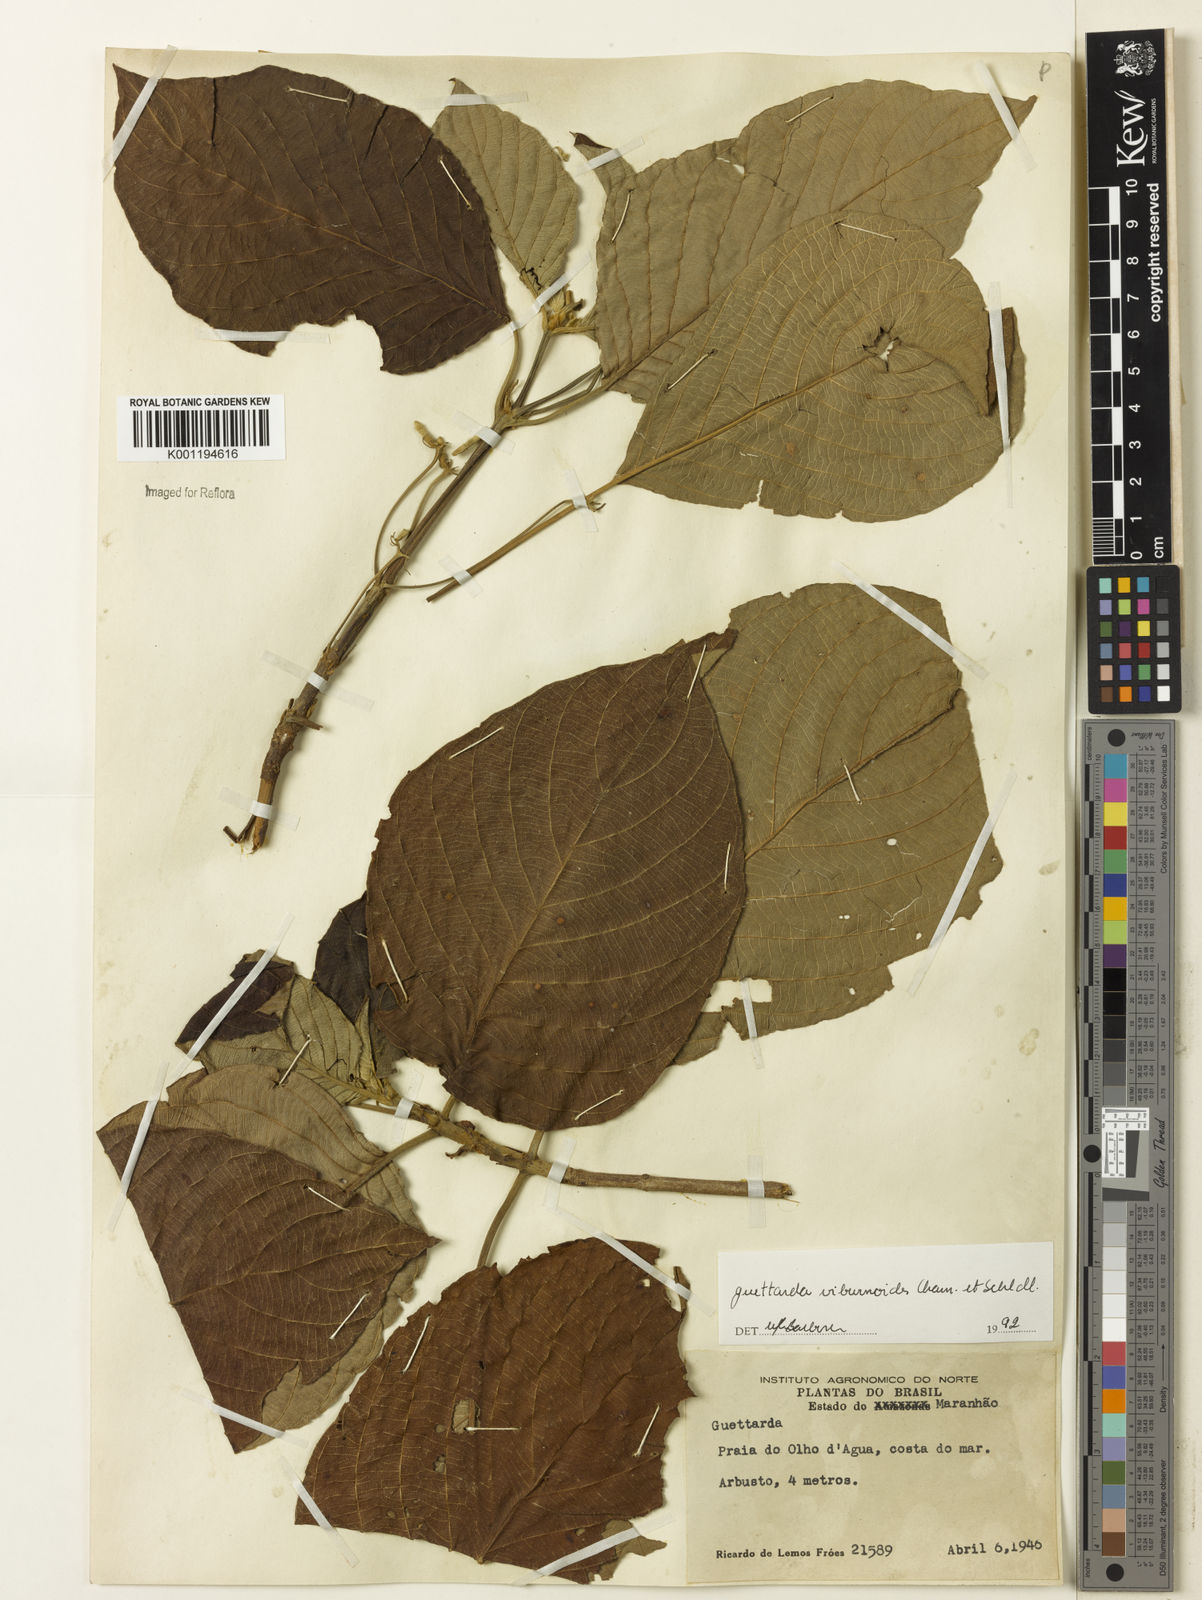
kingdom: Plantae
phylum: Tracheophyta
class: Magnoliopsida
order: Gentianales
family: Rubiaceae
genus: Guettarda
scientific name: Guettarda viburnoides
